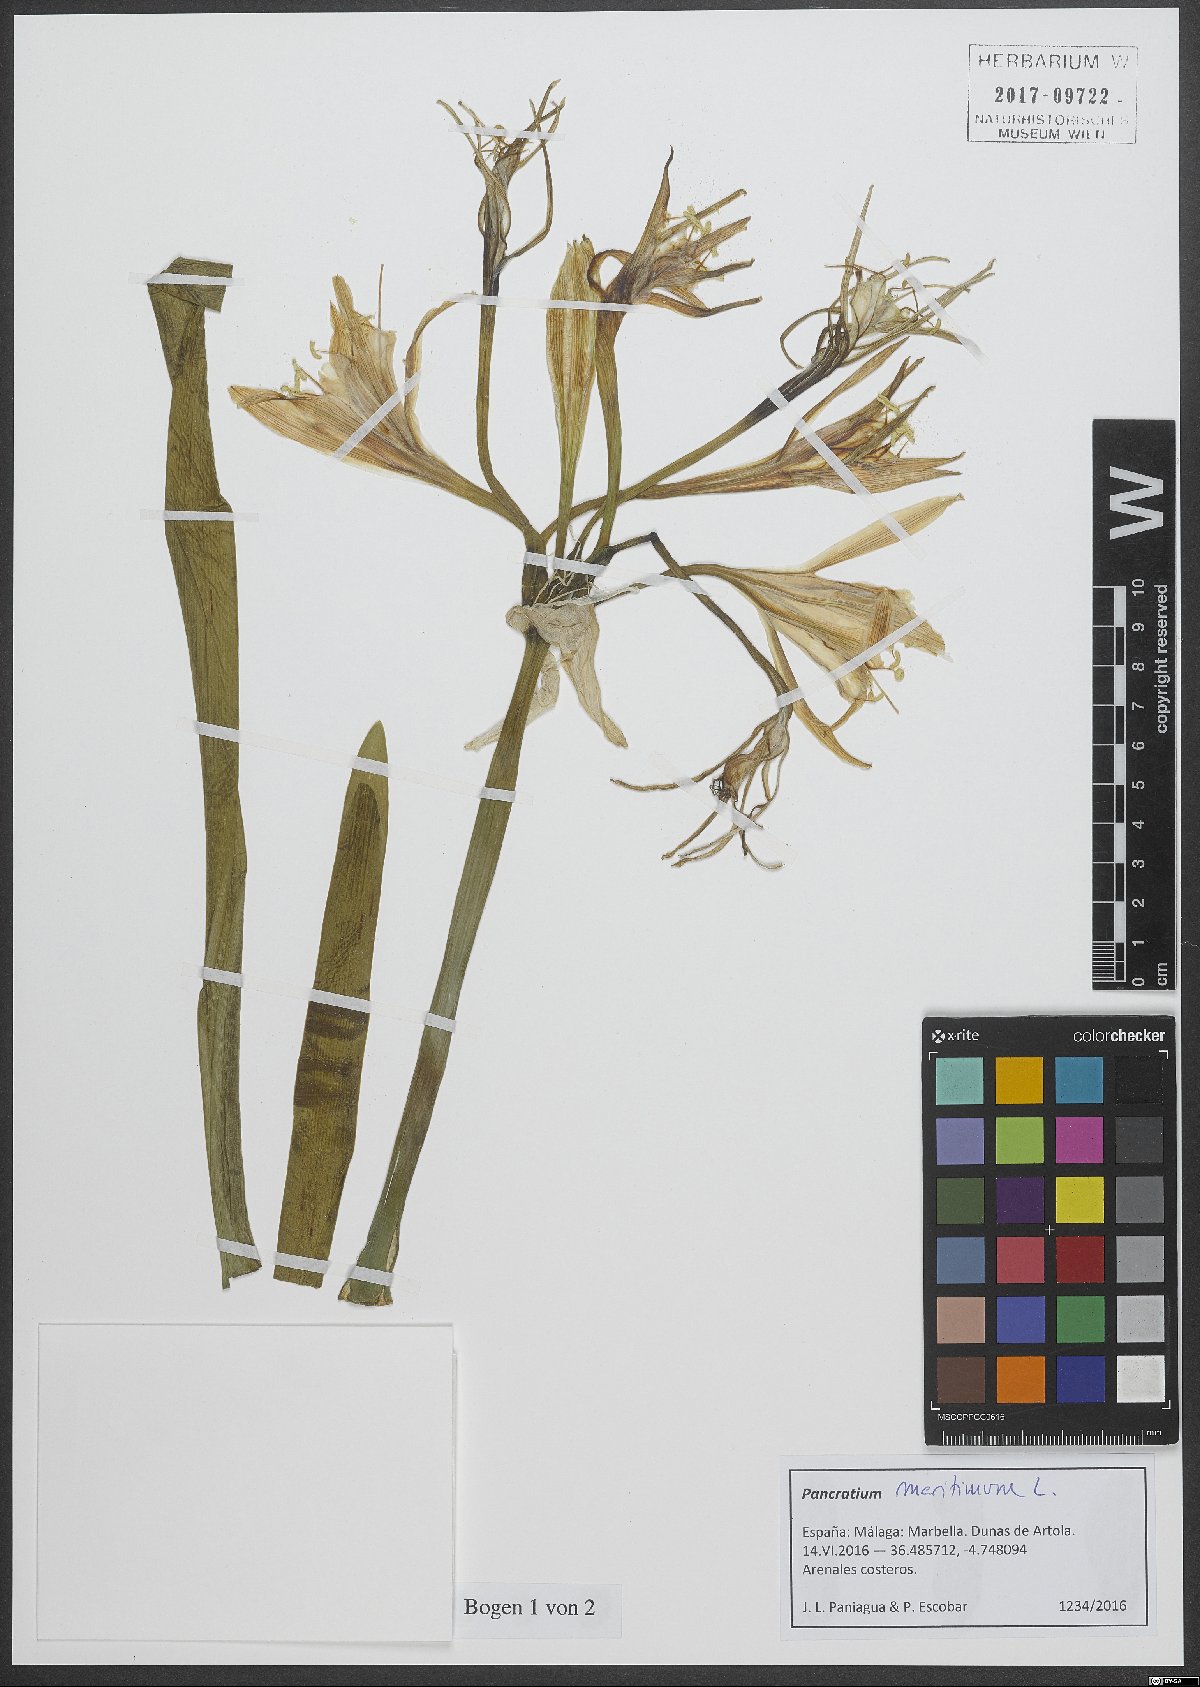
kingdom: Plantae
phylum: Tracheophyta
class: Liliopsida
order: Asparagales
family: Amaryllidaceae
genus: Pancratium
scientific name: Pancratium maritimum
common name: Sea-daffodil
